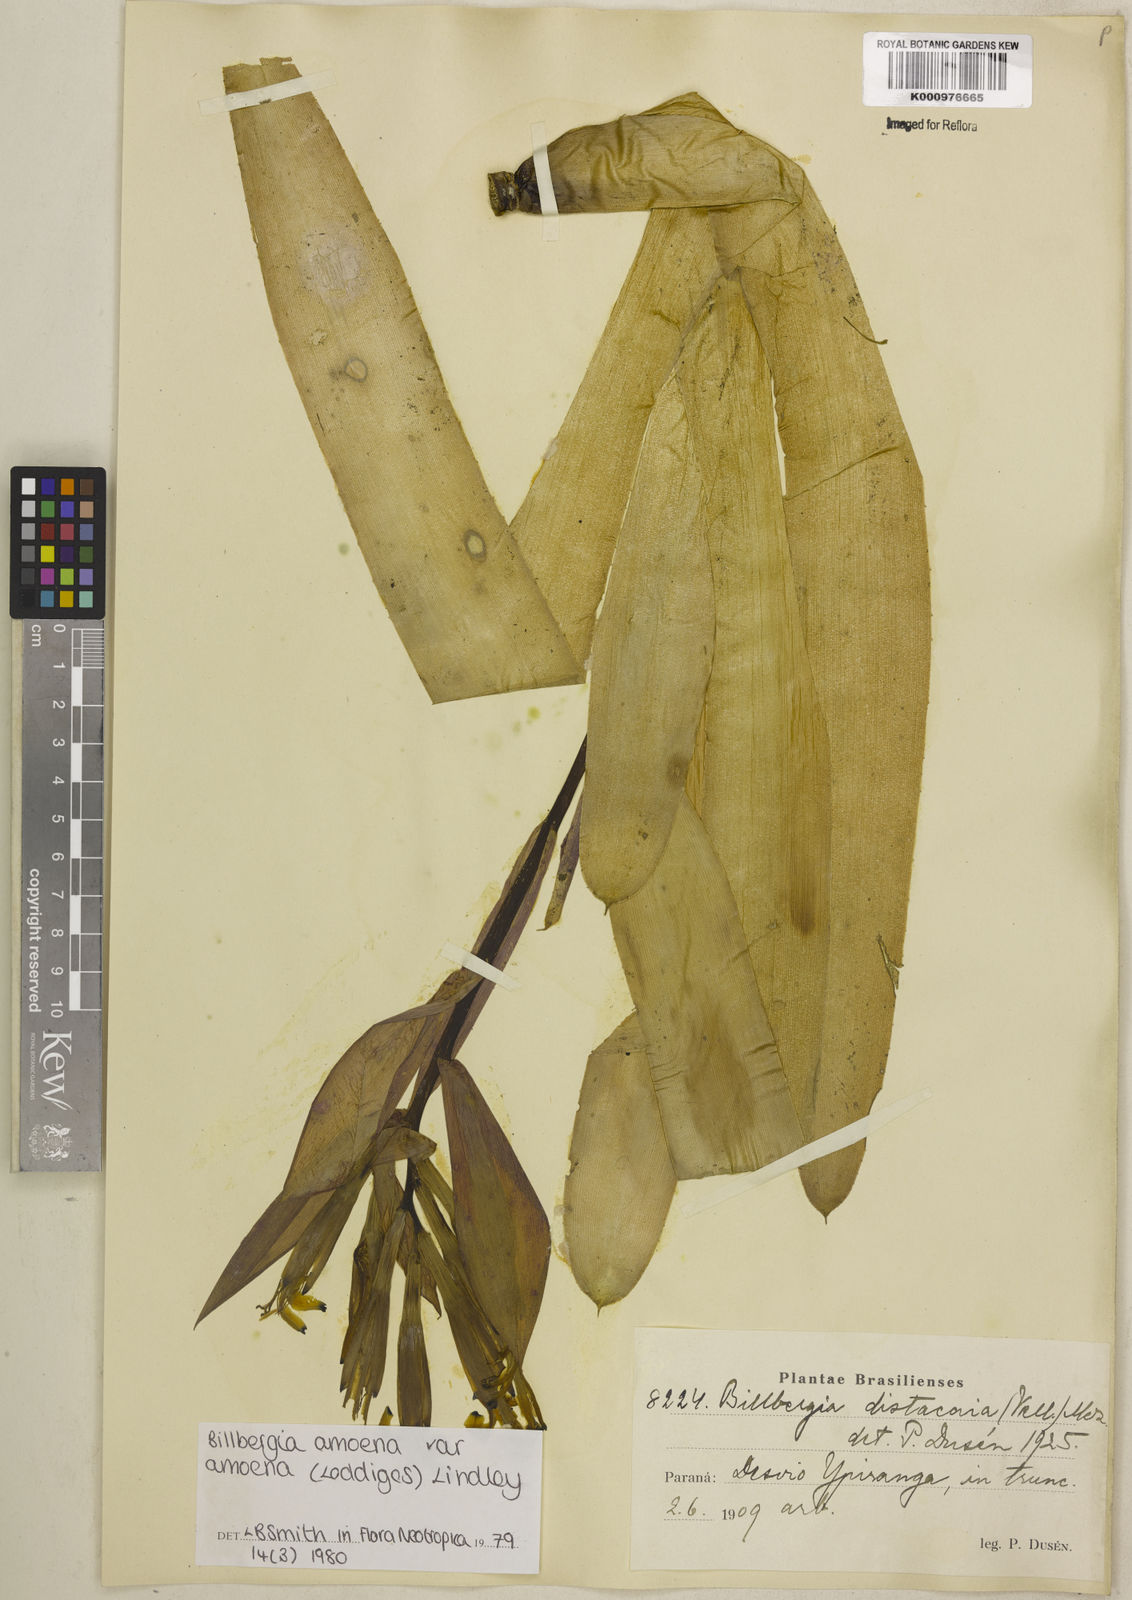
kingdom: Plantae
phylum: Tracheophyta
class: Liliopsida
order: Poales
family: Bromeliaceae
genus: Billbergia
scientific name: Billbergia amoena
